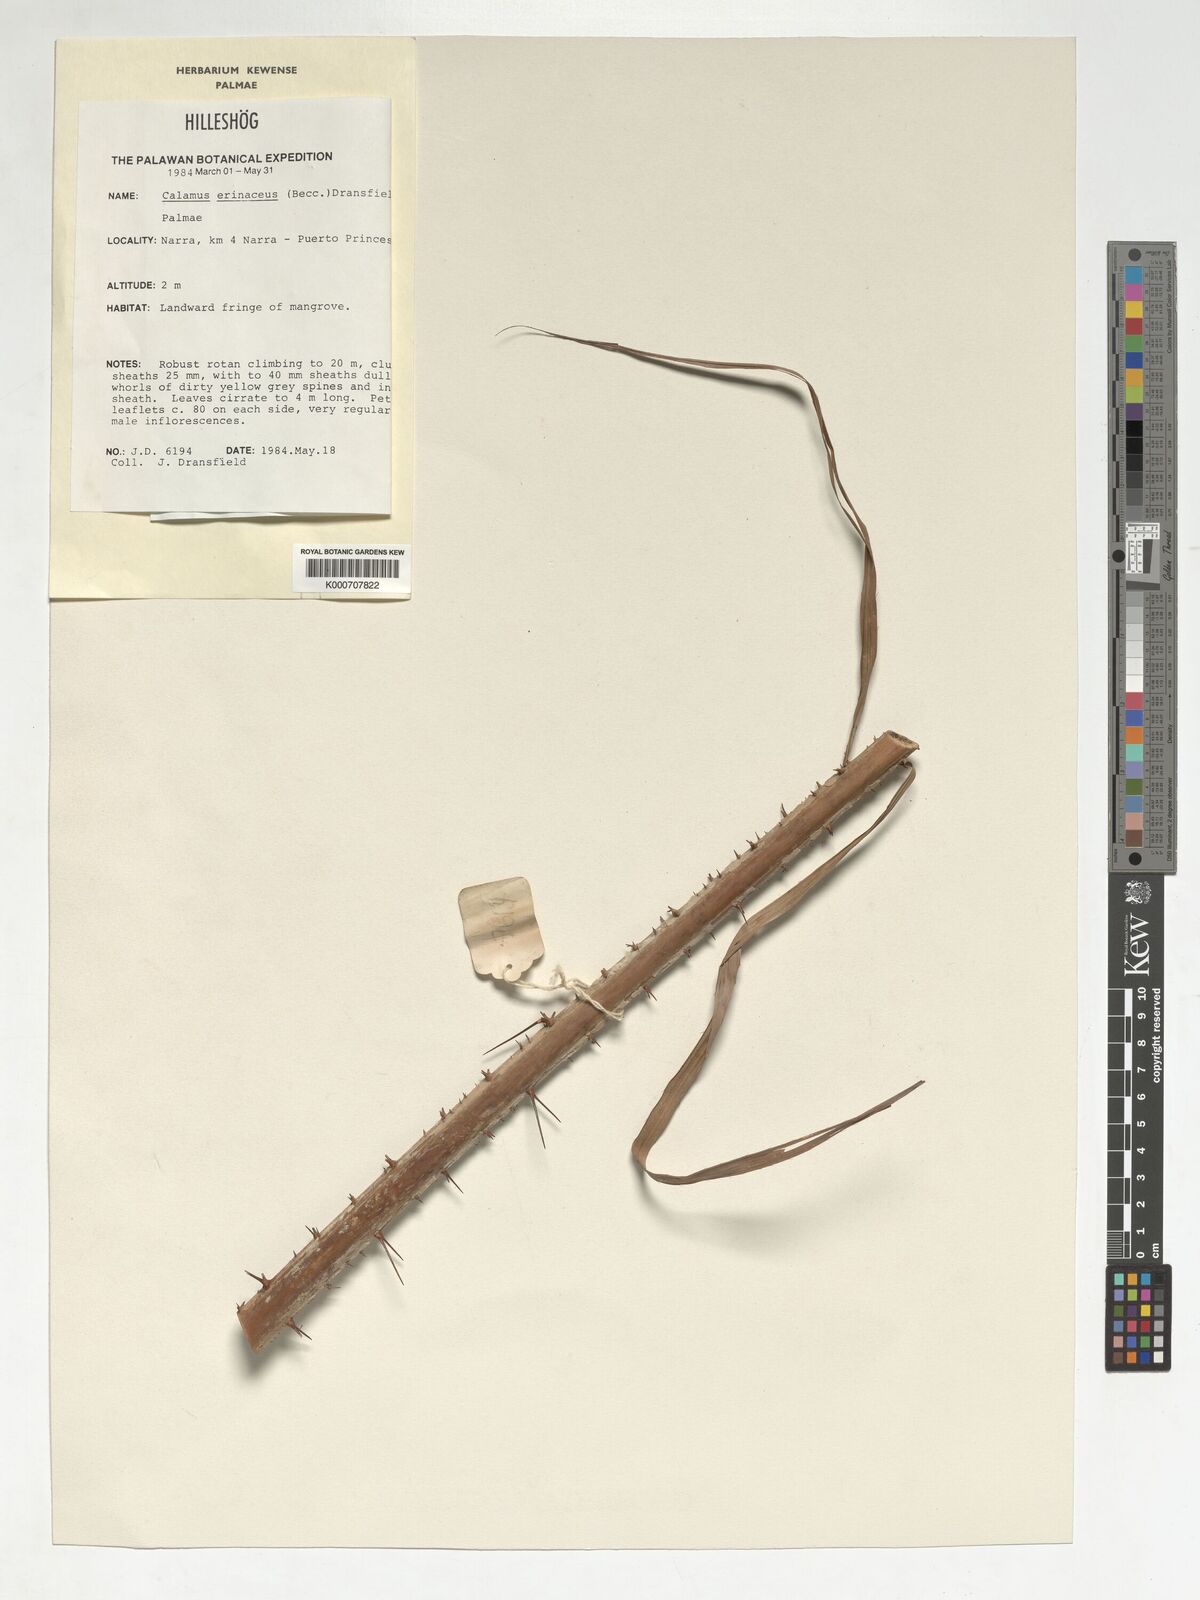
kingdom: Plantae
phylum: Tracheophyta
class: Liliopsida
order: Arecales
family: Arecaceae
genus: Calamus
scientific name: Calamus erinaceus
